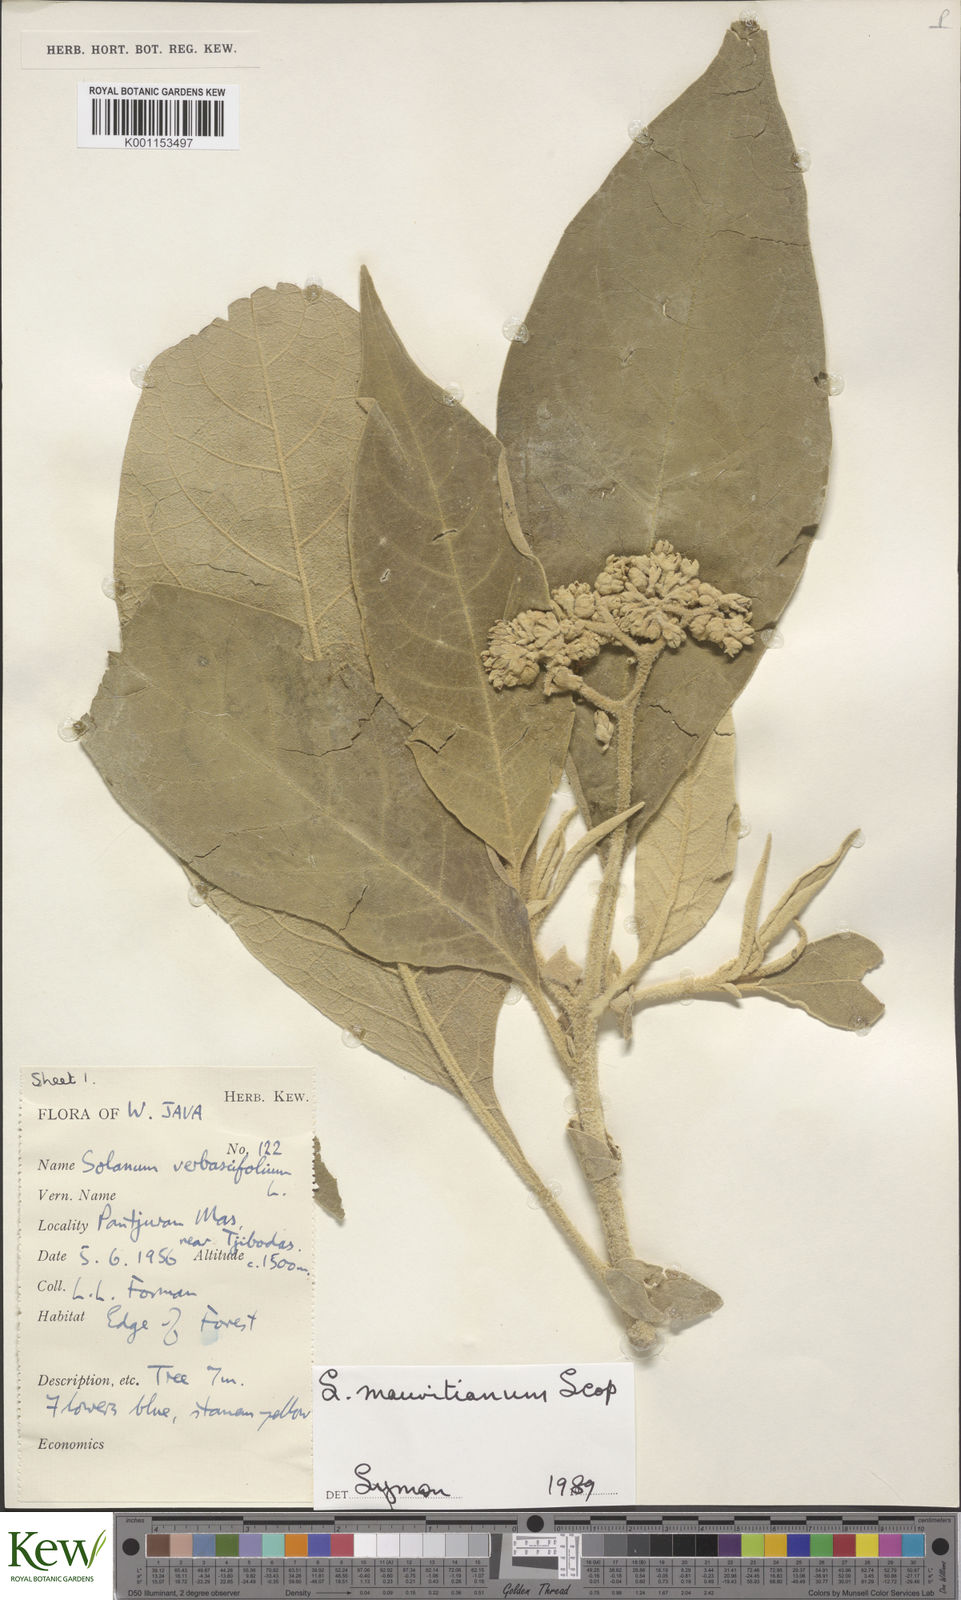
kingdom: Plantae
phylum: Tracheophyta
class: Magnoliopsida
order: Solanales
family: Solanaceae
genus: Solanum
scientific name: Solanum mauritianum
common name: Earleaf nightshade
